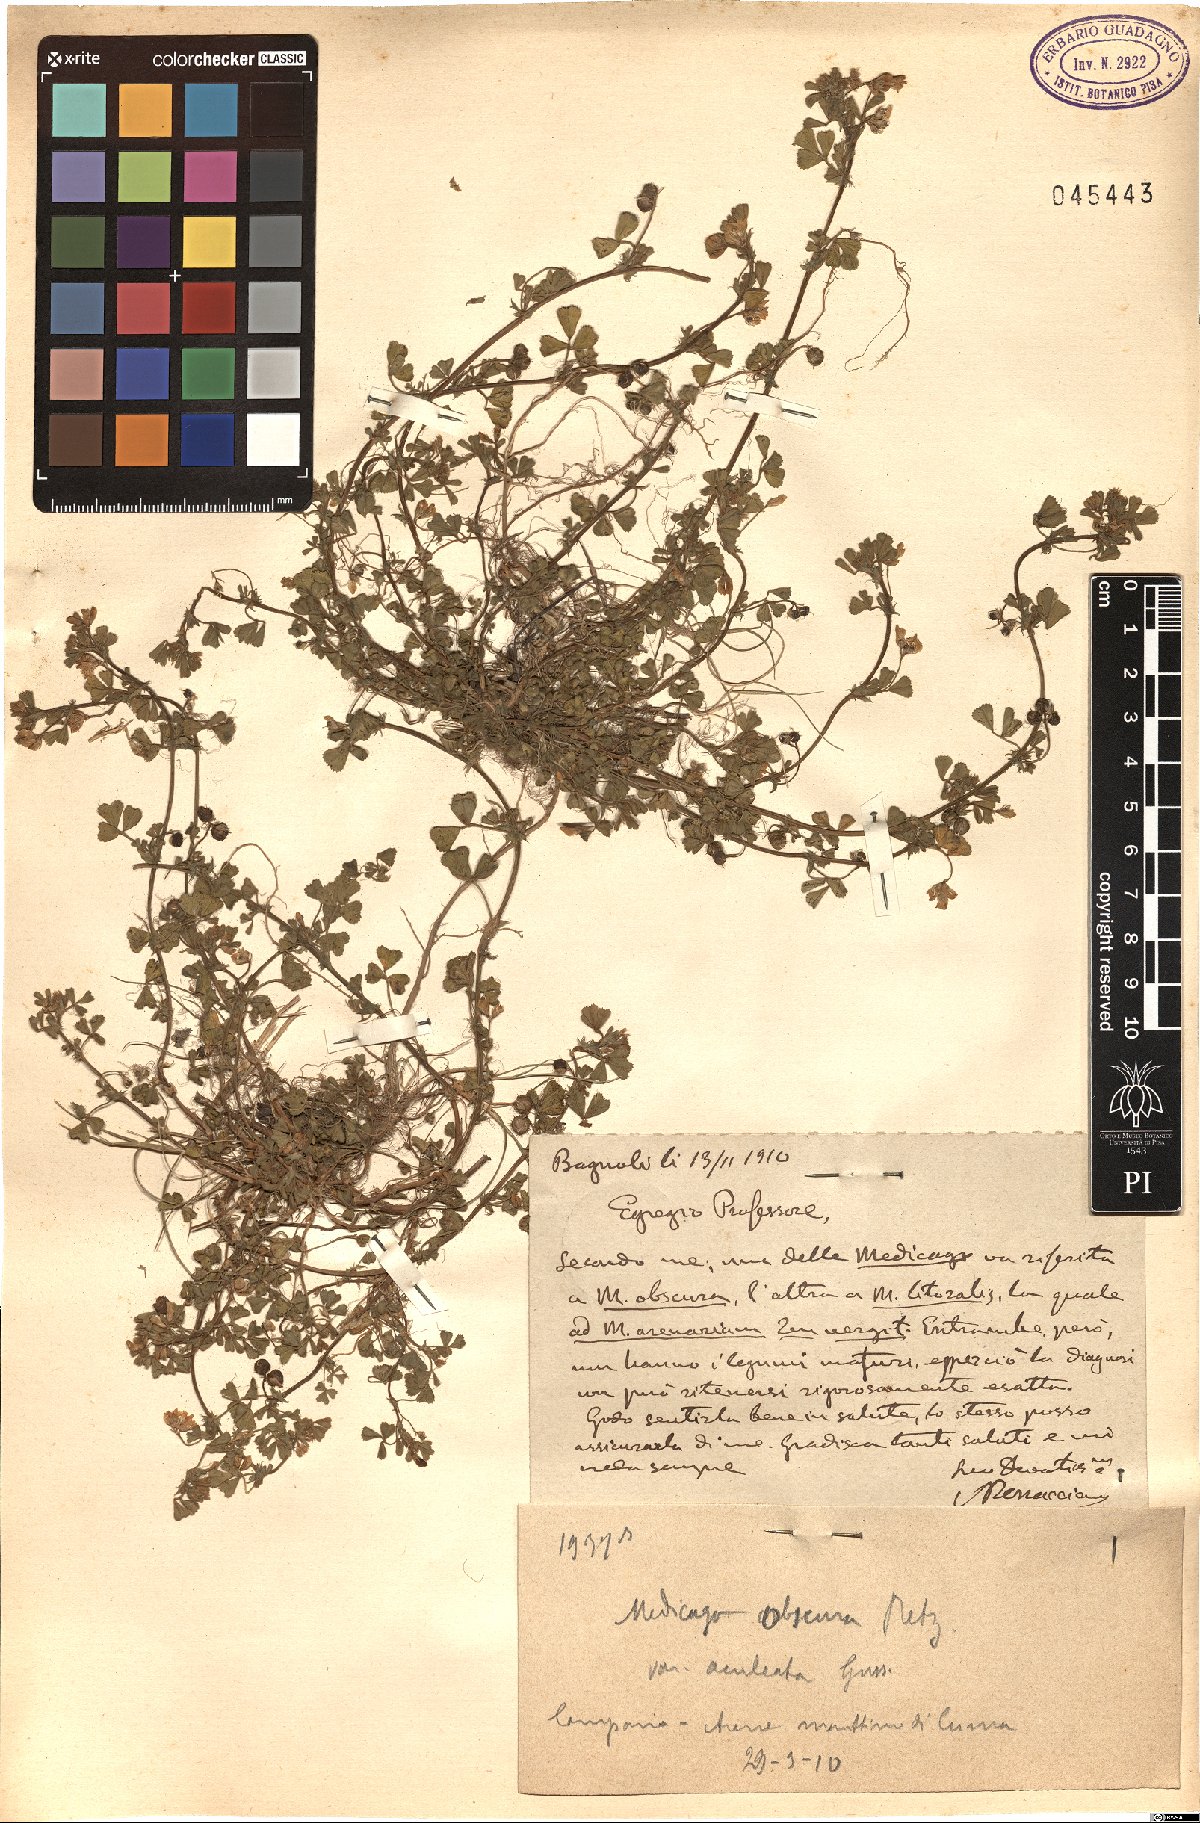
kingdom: Plantae
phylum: Tracheophyta
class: Magnoliopsida
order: Fabales
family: Fabaceae
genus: Medicago
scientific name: Medicago tornata
